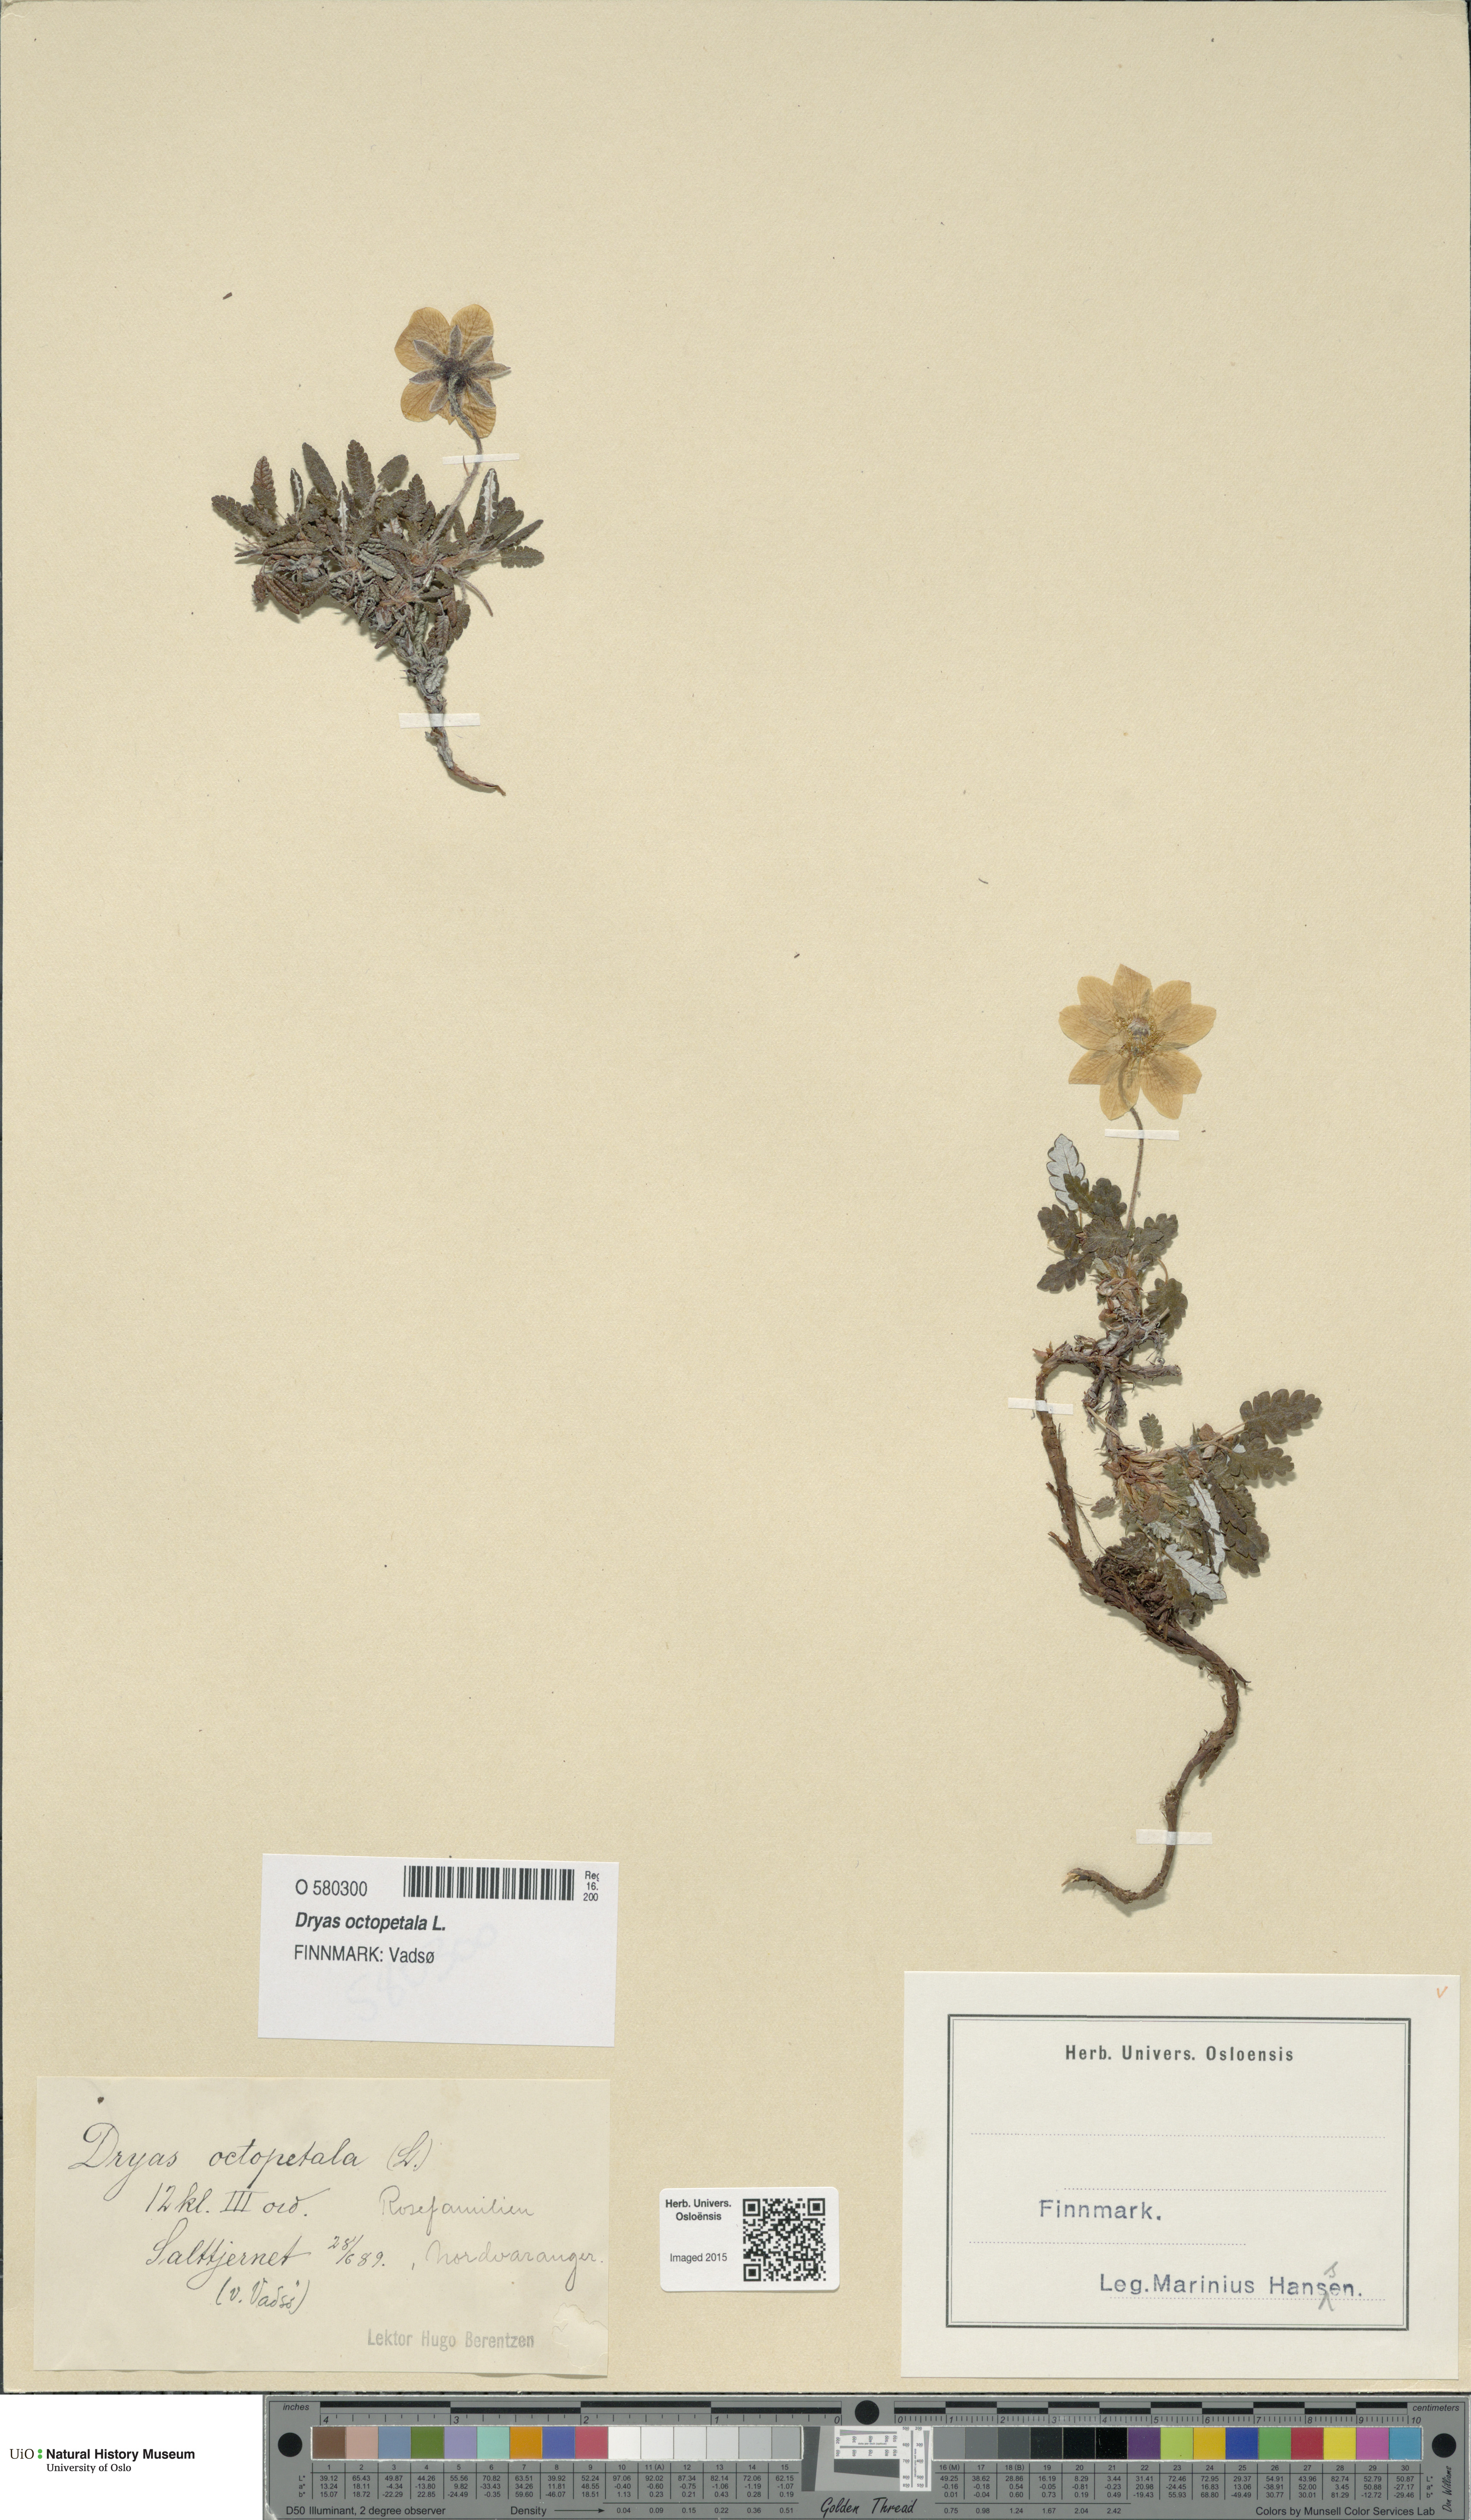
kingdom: Plantae
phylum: Tracheophyta
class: Magnoliopsida
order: Rosales
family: Rosaceae
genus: Dryas
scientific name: Dryas octopetala
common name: Eight-petal mountain-avens
